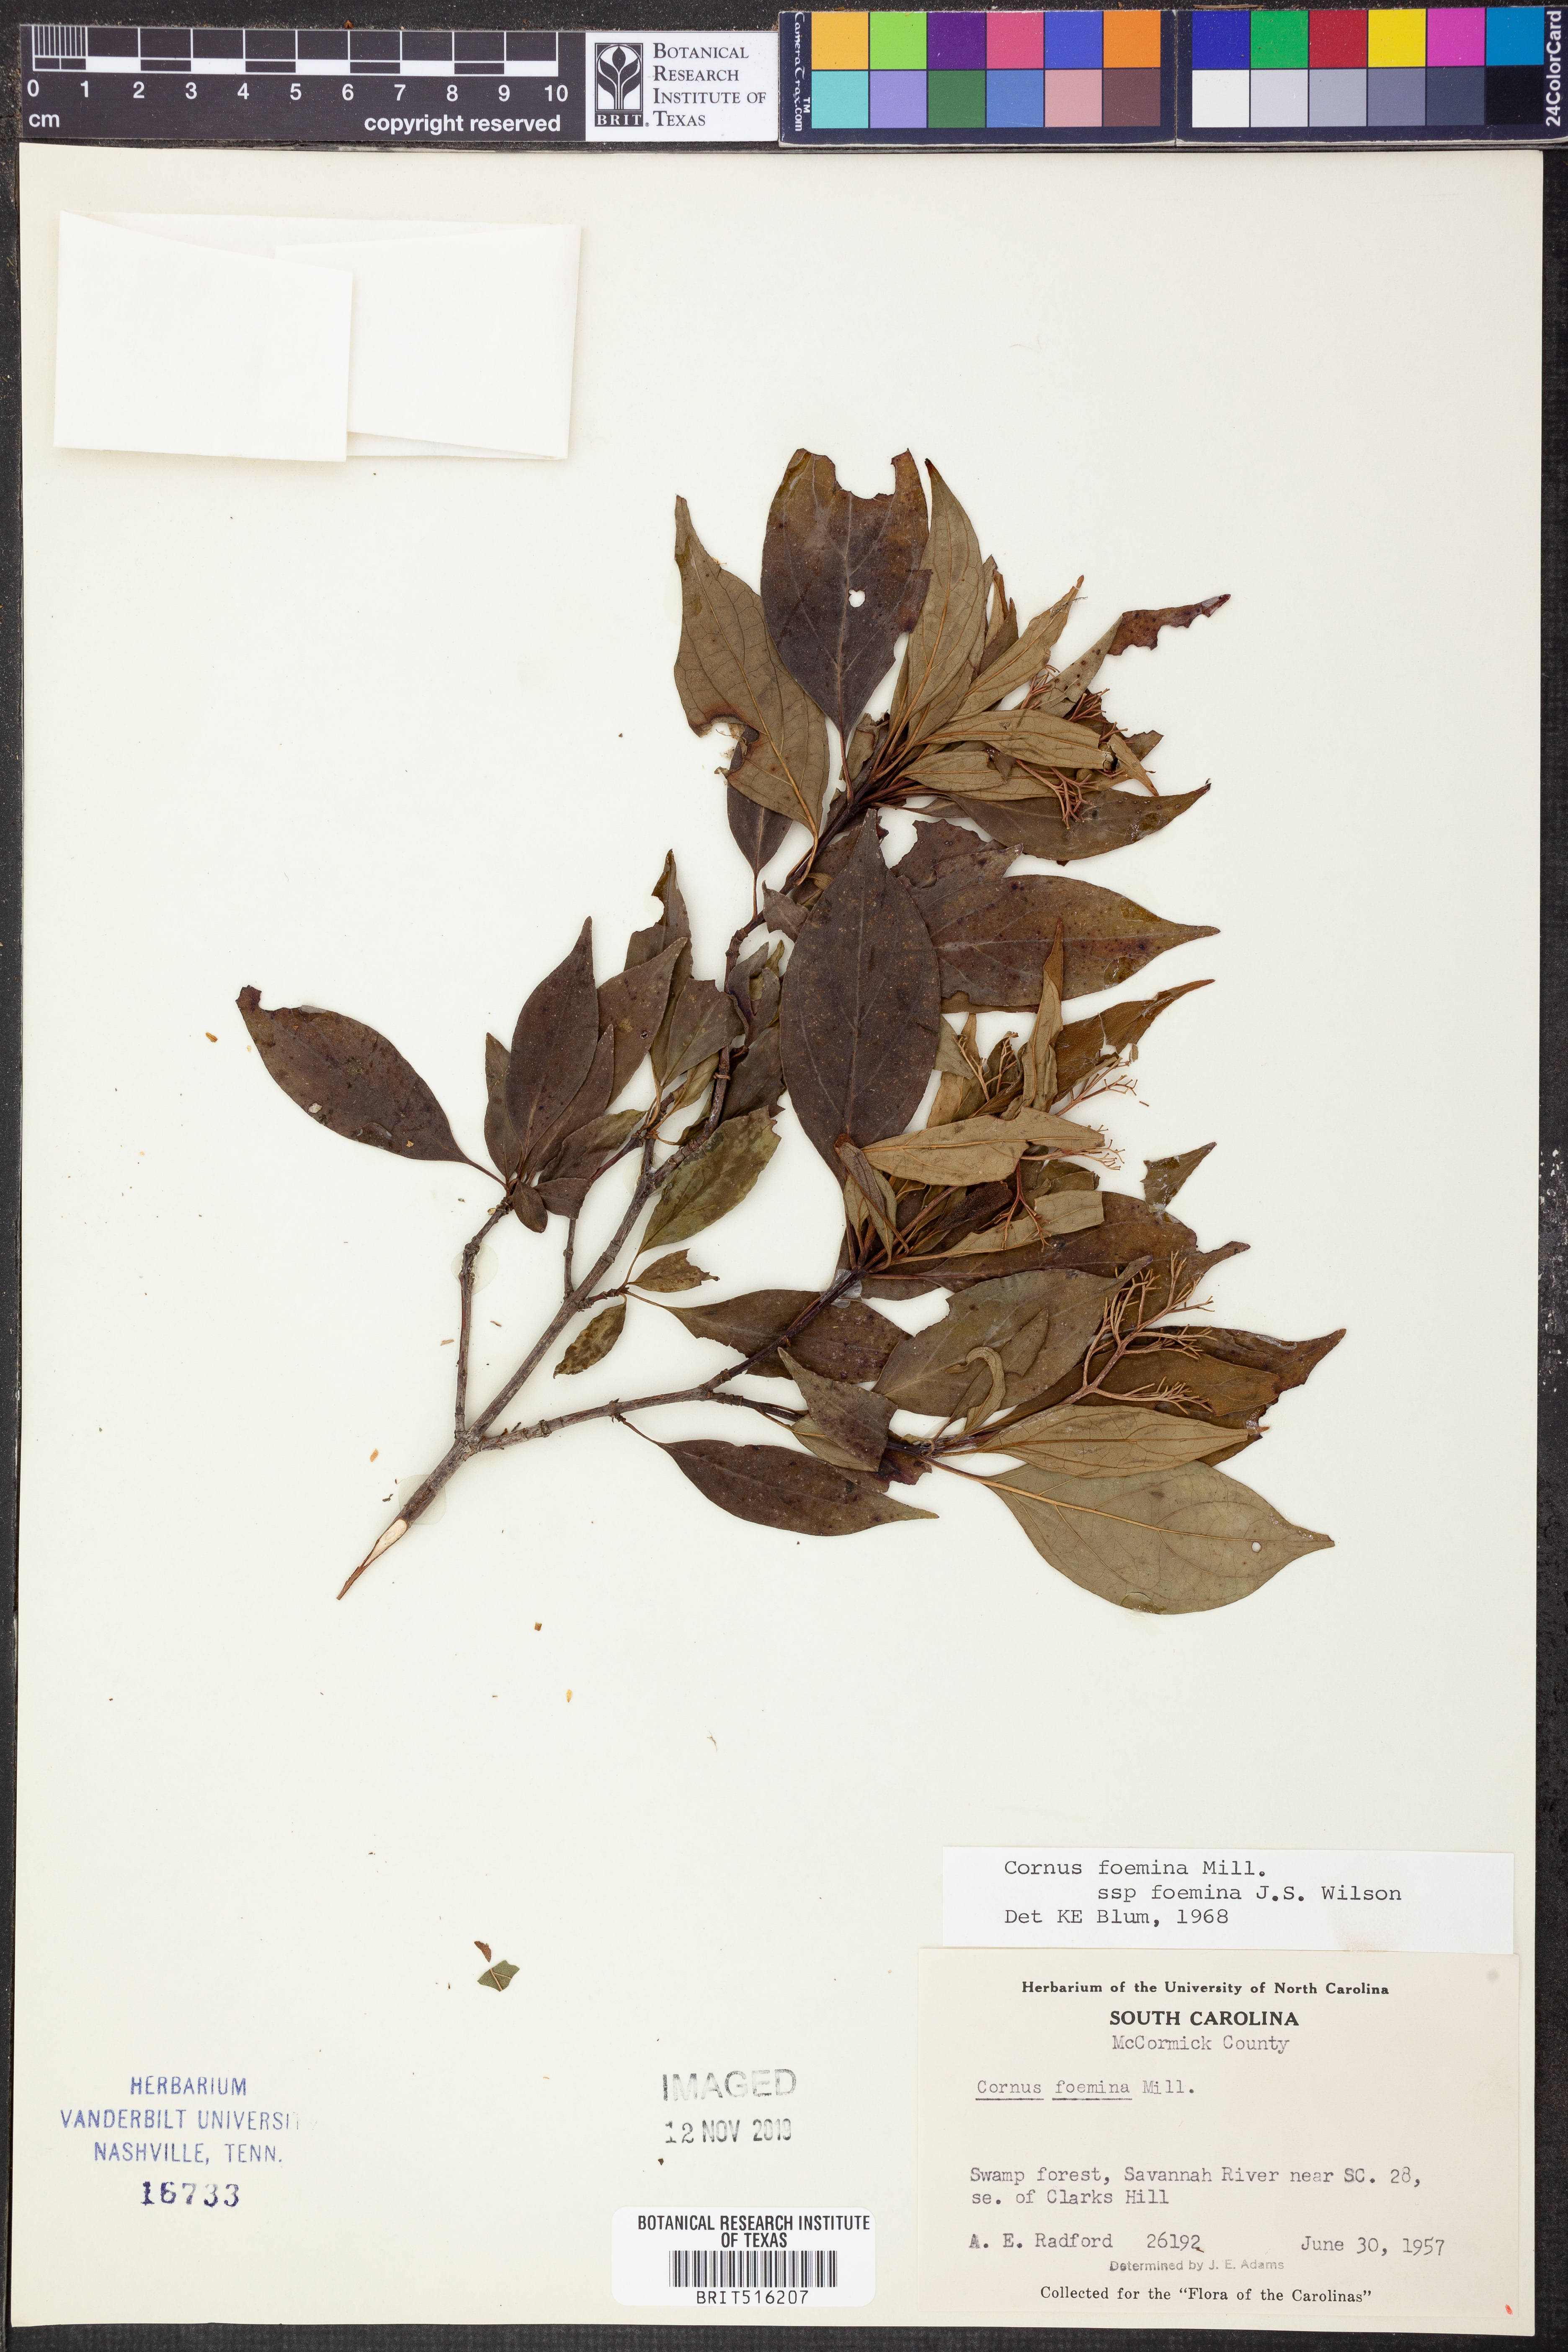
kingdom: Plantae
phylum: Tracheophyta
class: Magnoliopsida
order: Cornales
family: Cornaceae
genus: Cornus
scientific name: Cornus foemina
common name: Swamp dogwood
